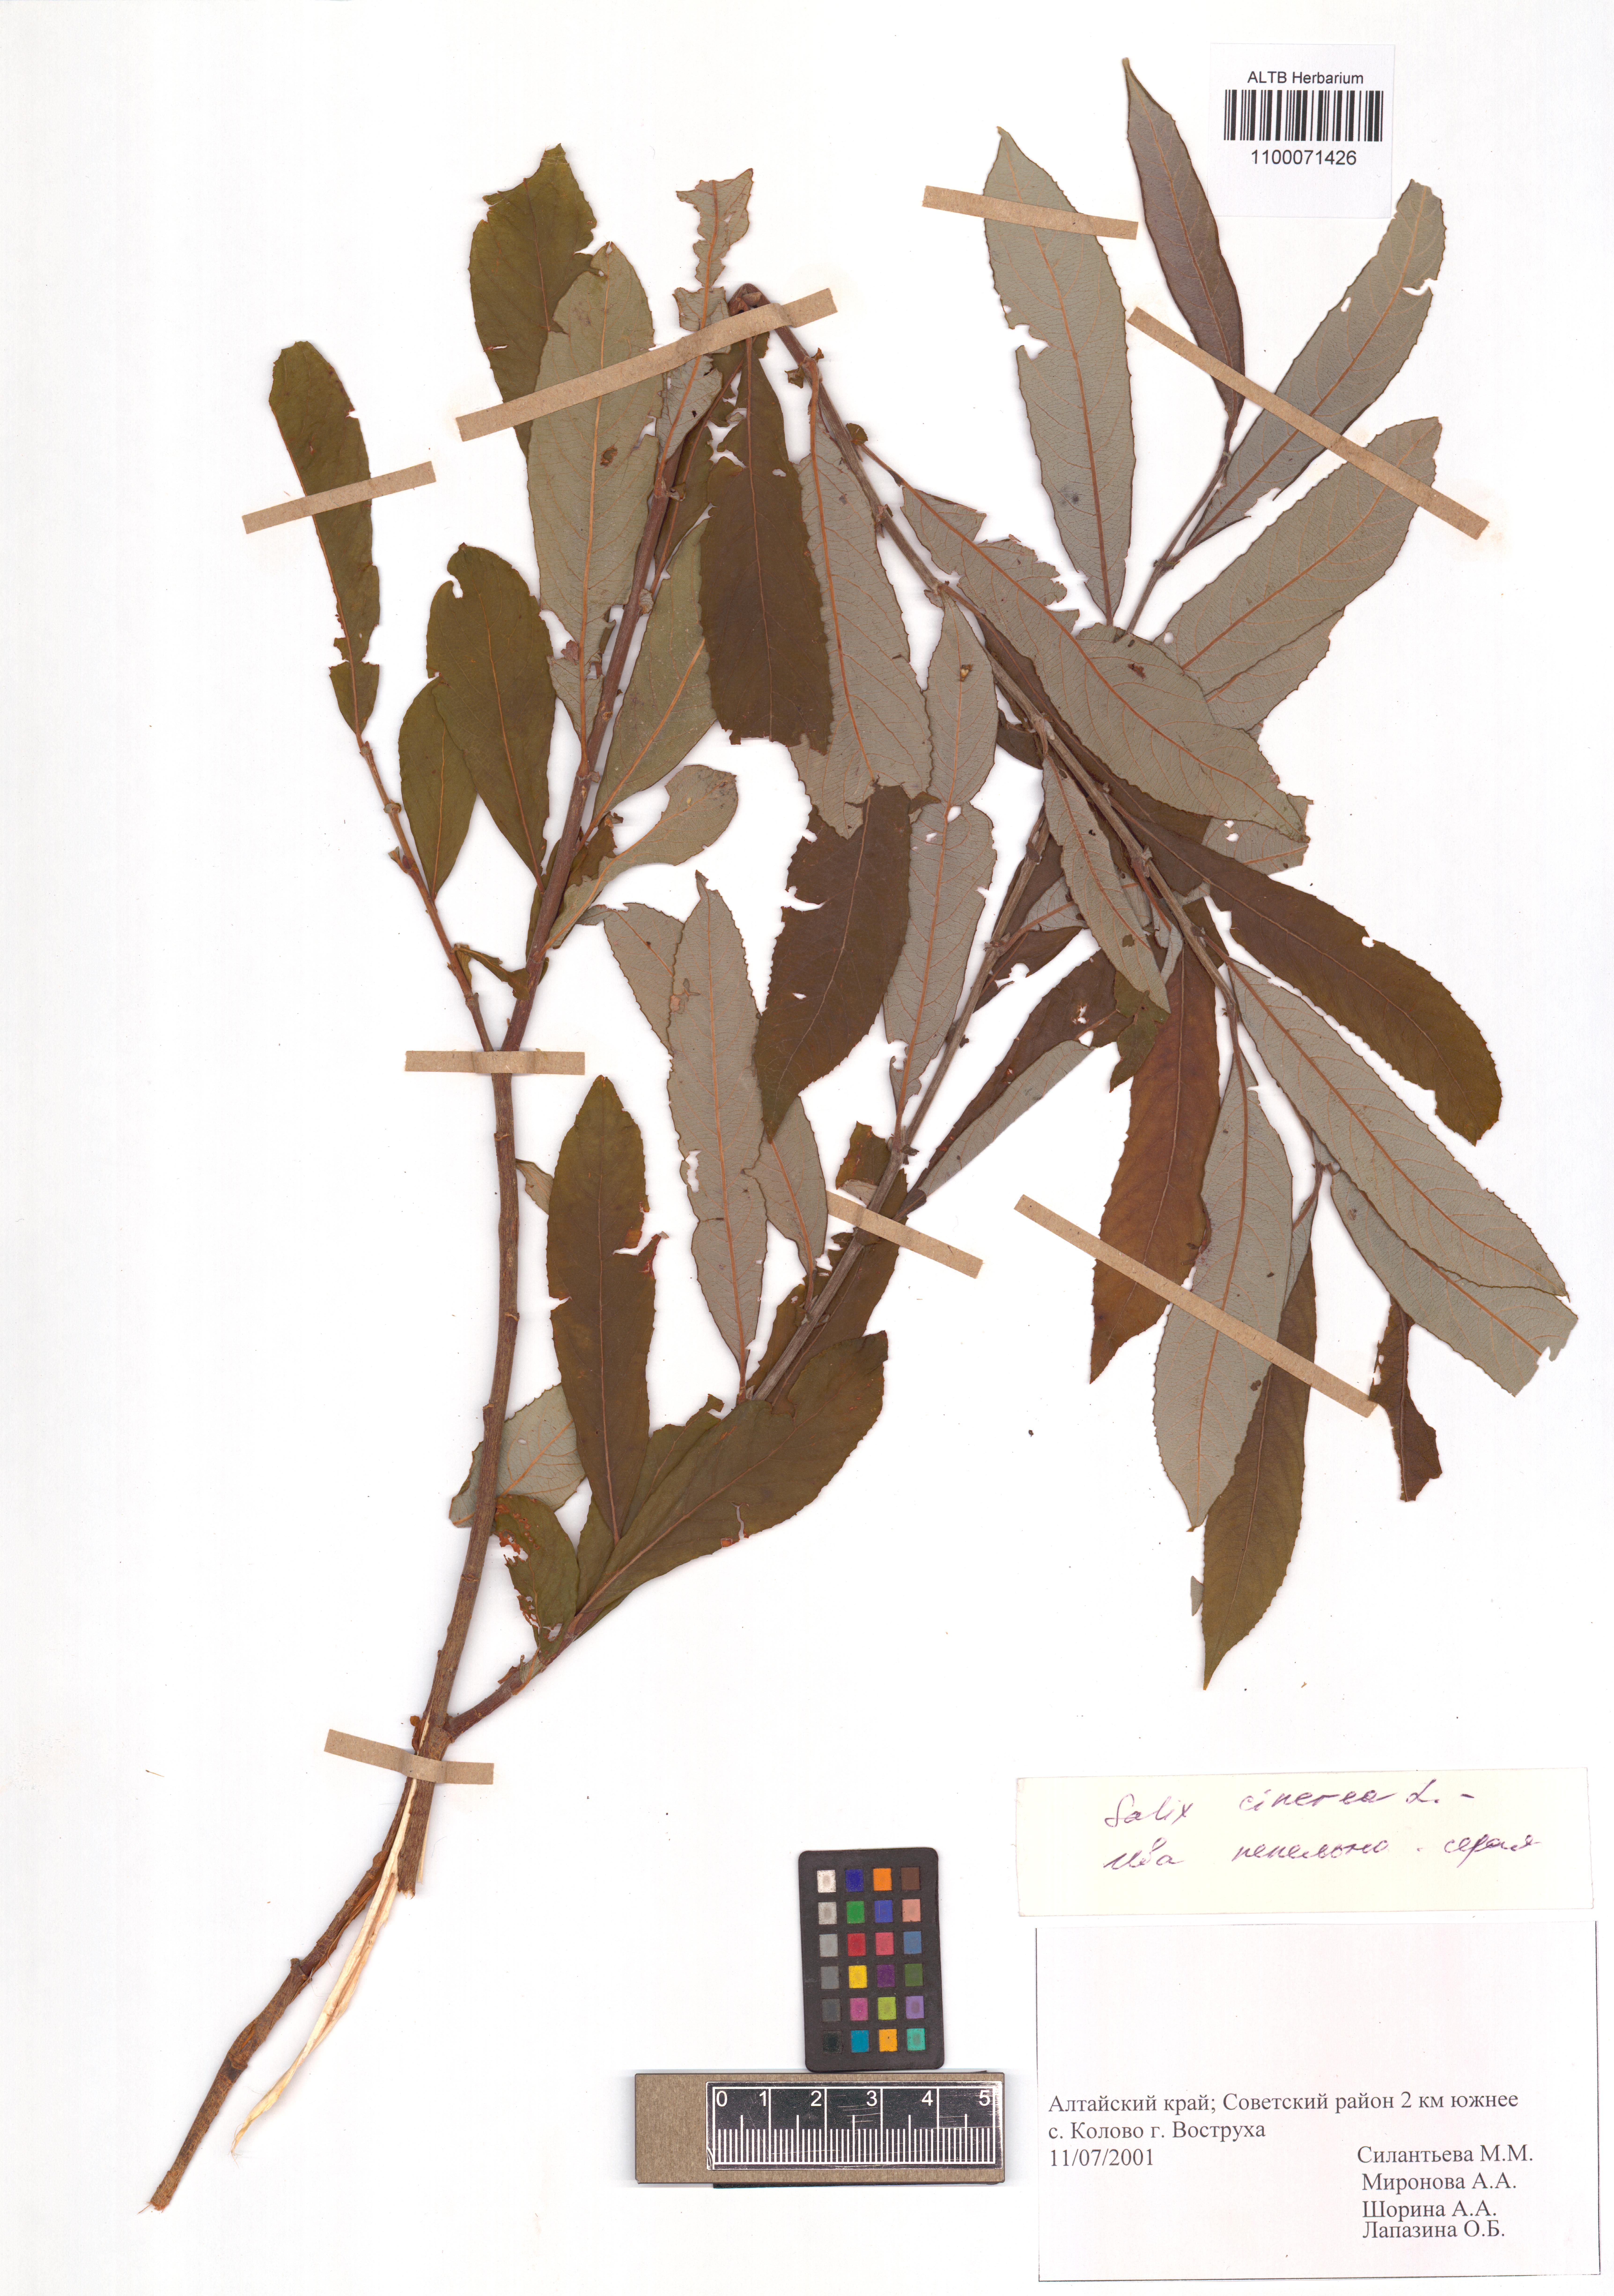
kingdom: Plantae
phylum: Tracheophyta
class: Magnoliopsida
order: Malpighiales
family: Salicaceae
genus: Salix
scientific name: Salix cinerea
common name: Common sallow
